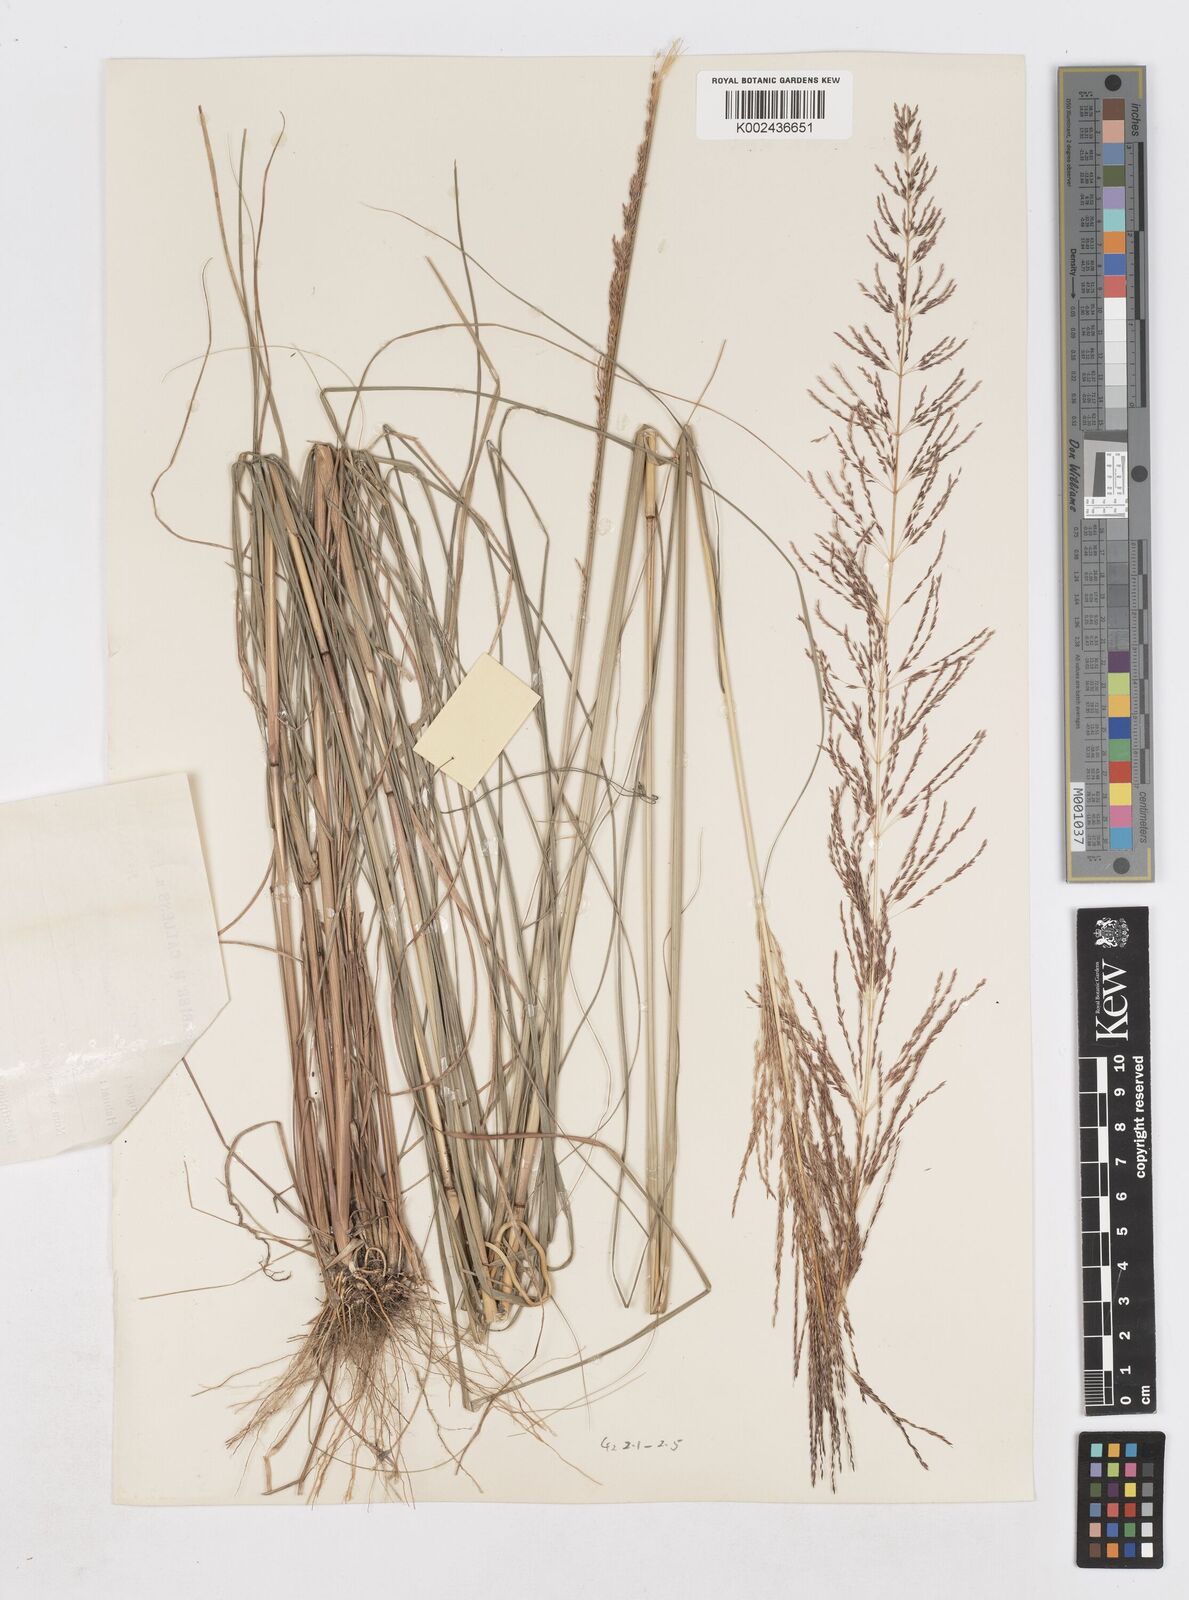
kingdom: Plantae
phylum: Tracheophyta
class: Liliopsida
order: Poales
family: Poaceae
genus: Sporobolus
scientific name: Sporobolus sanguineus
